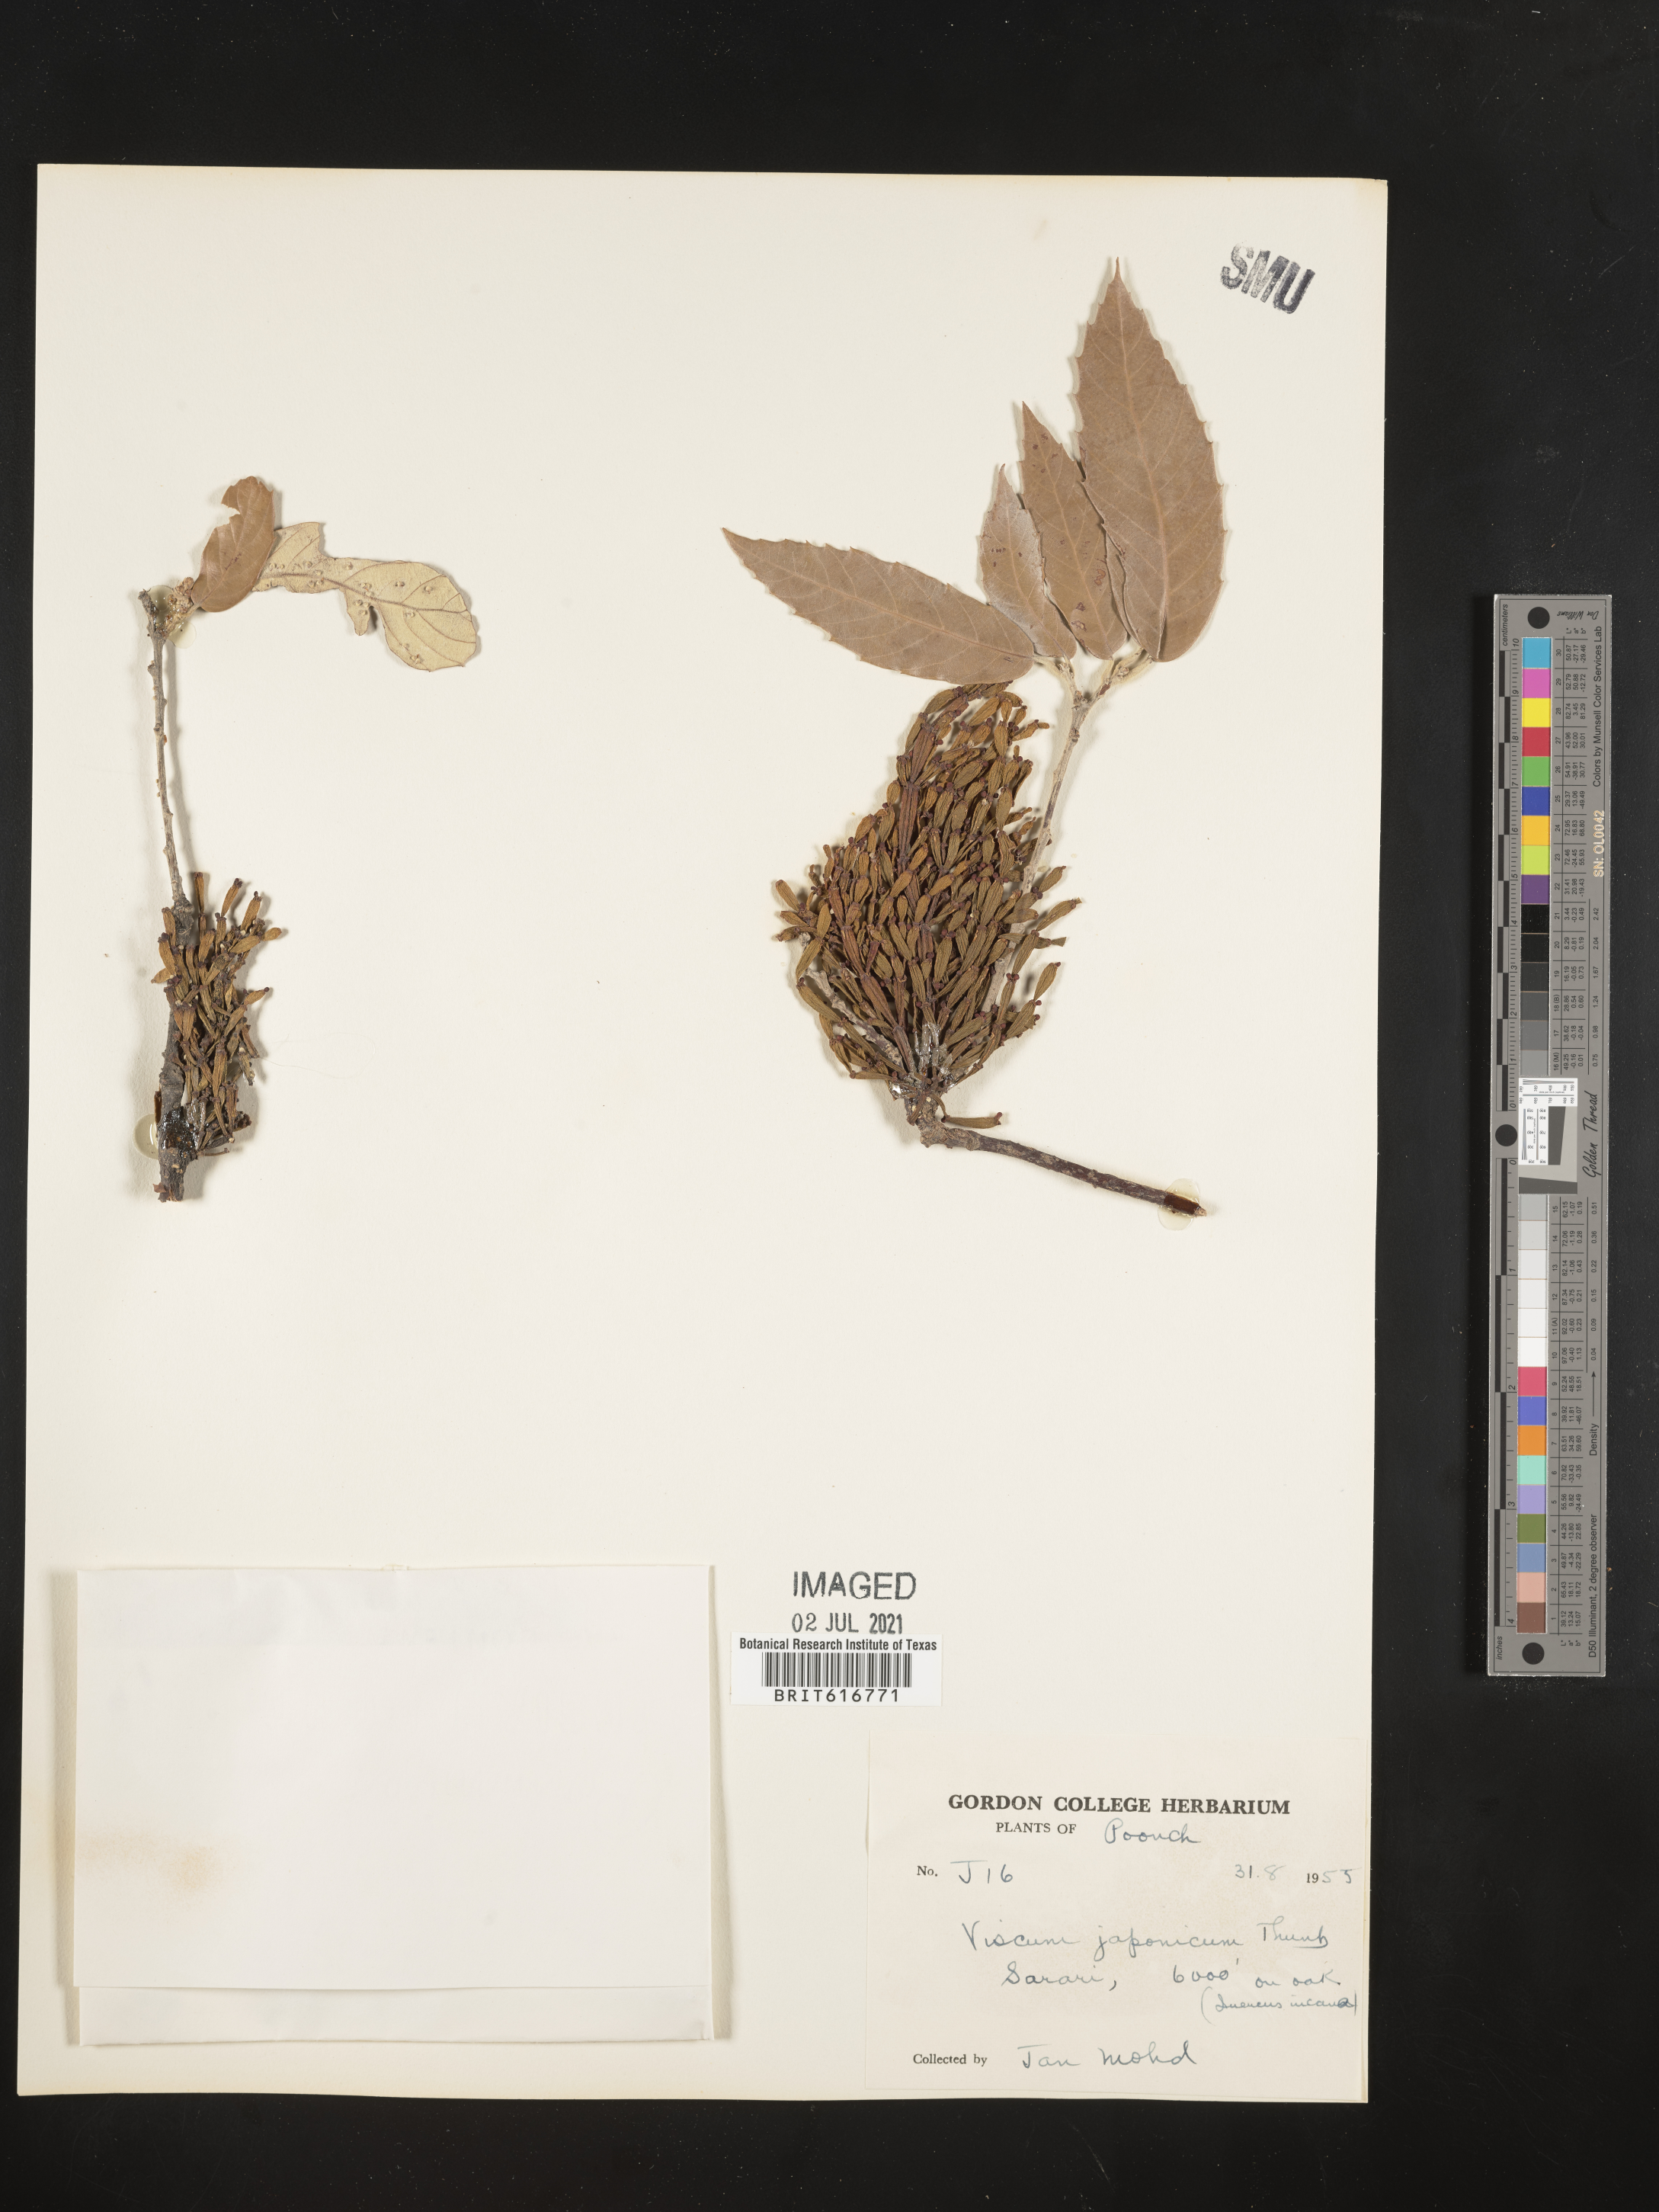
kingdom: Plantae
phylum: Tracheophyta
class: Magnoliopsida
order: Santalales
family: Viscaceae
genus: Korthalsella
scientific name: Korthalsella japonica
